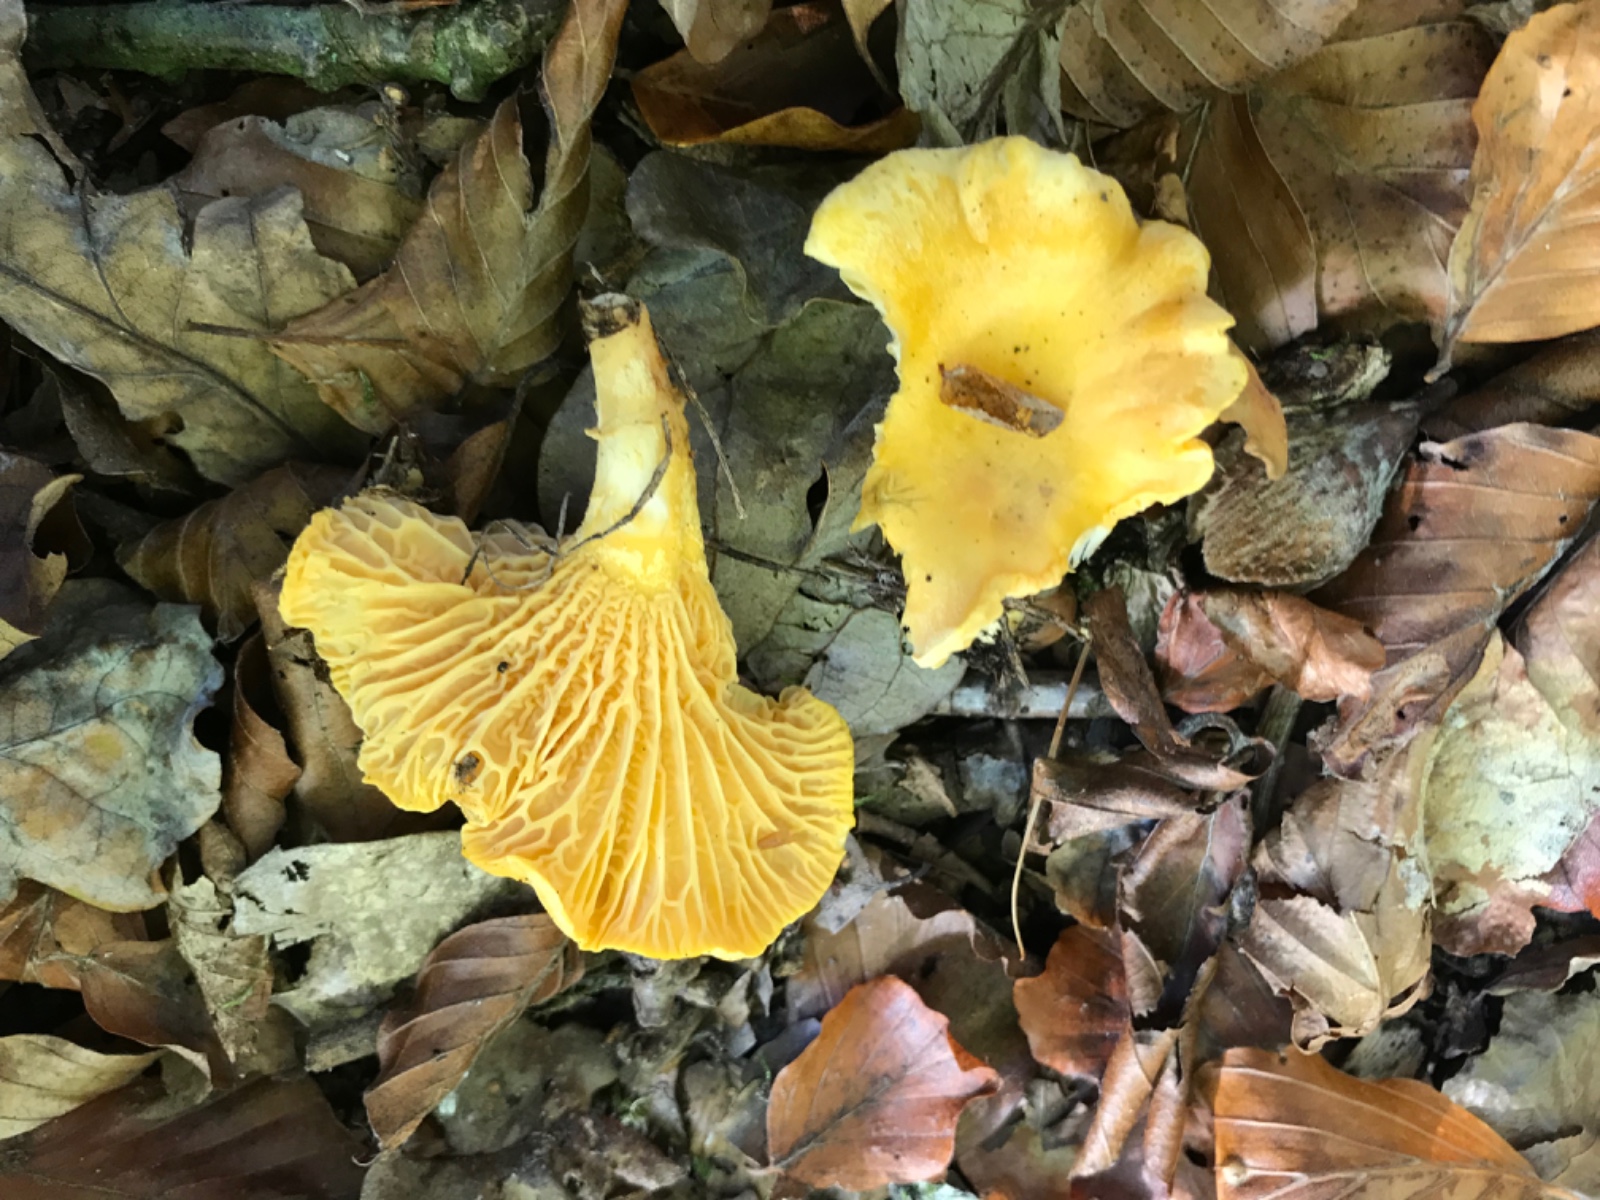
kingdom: Fungi
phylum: Basidiomycota
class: Agaricomycetes
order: Cantharellales
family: Hydnaceae
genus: Cantharellus
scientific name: Cantharellus cibarius
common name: almindelig kantarel
